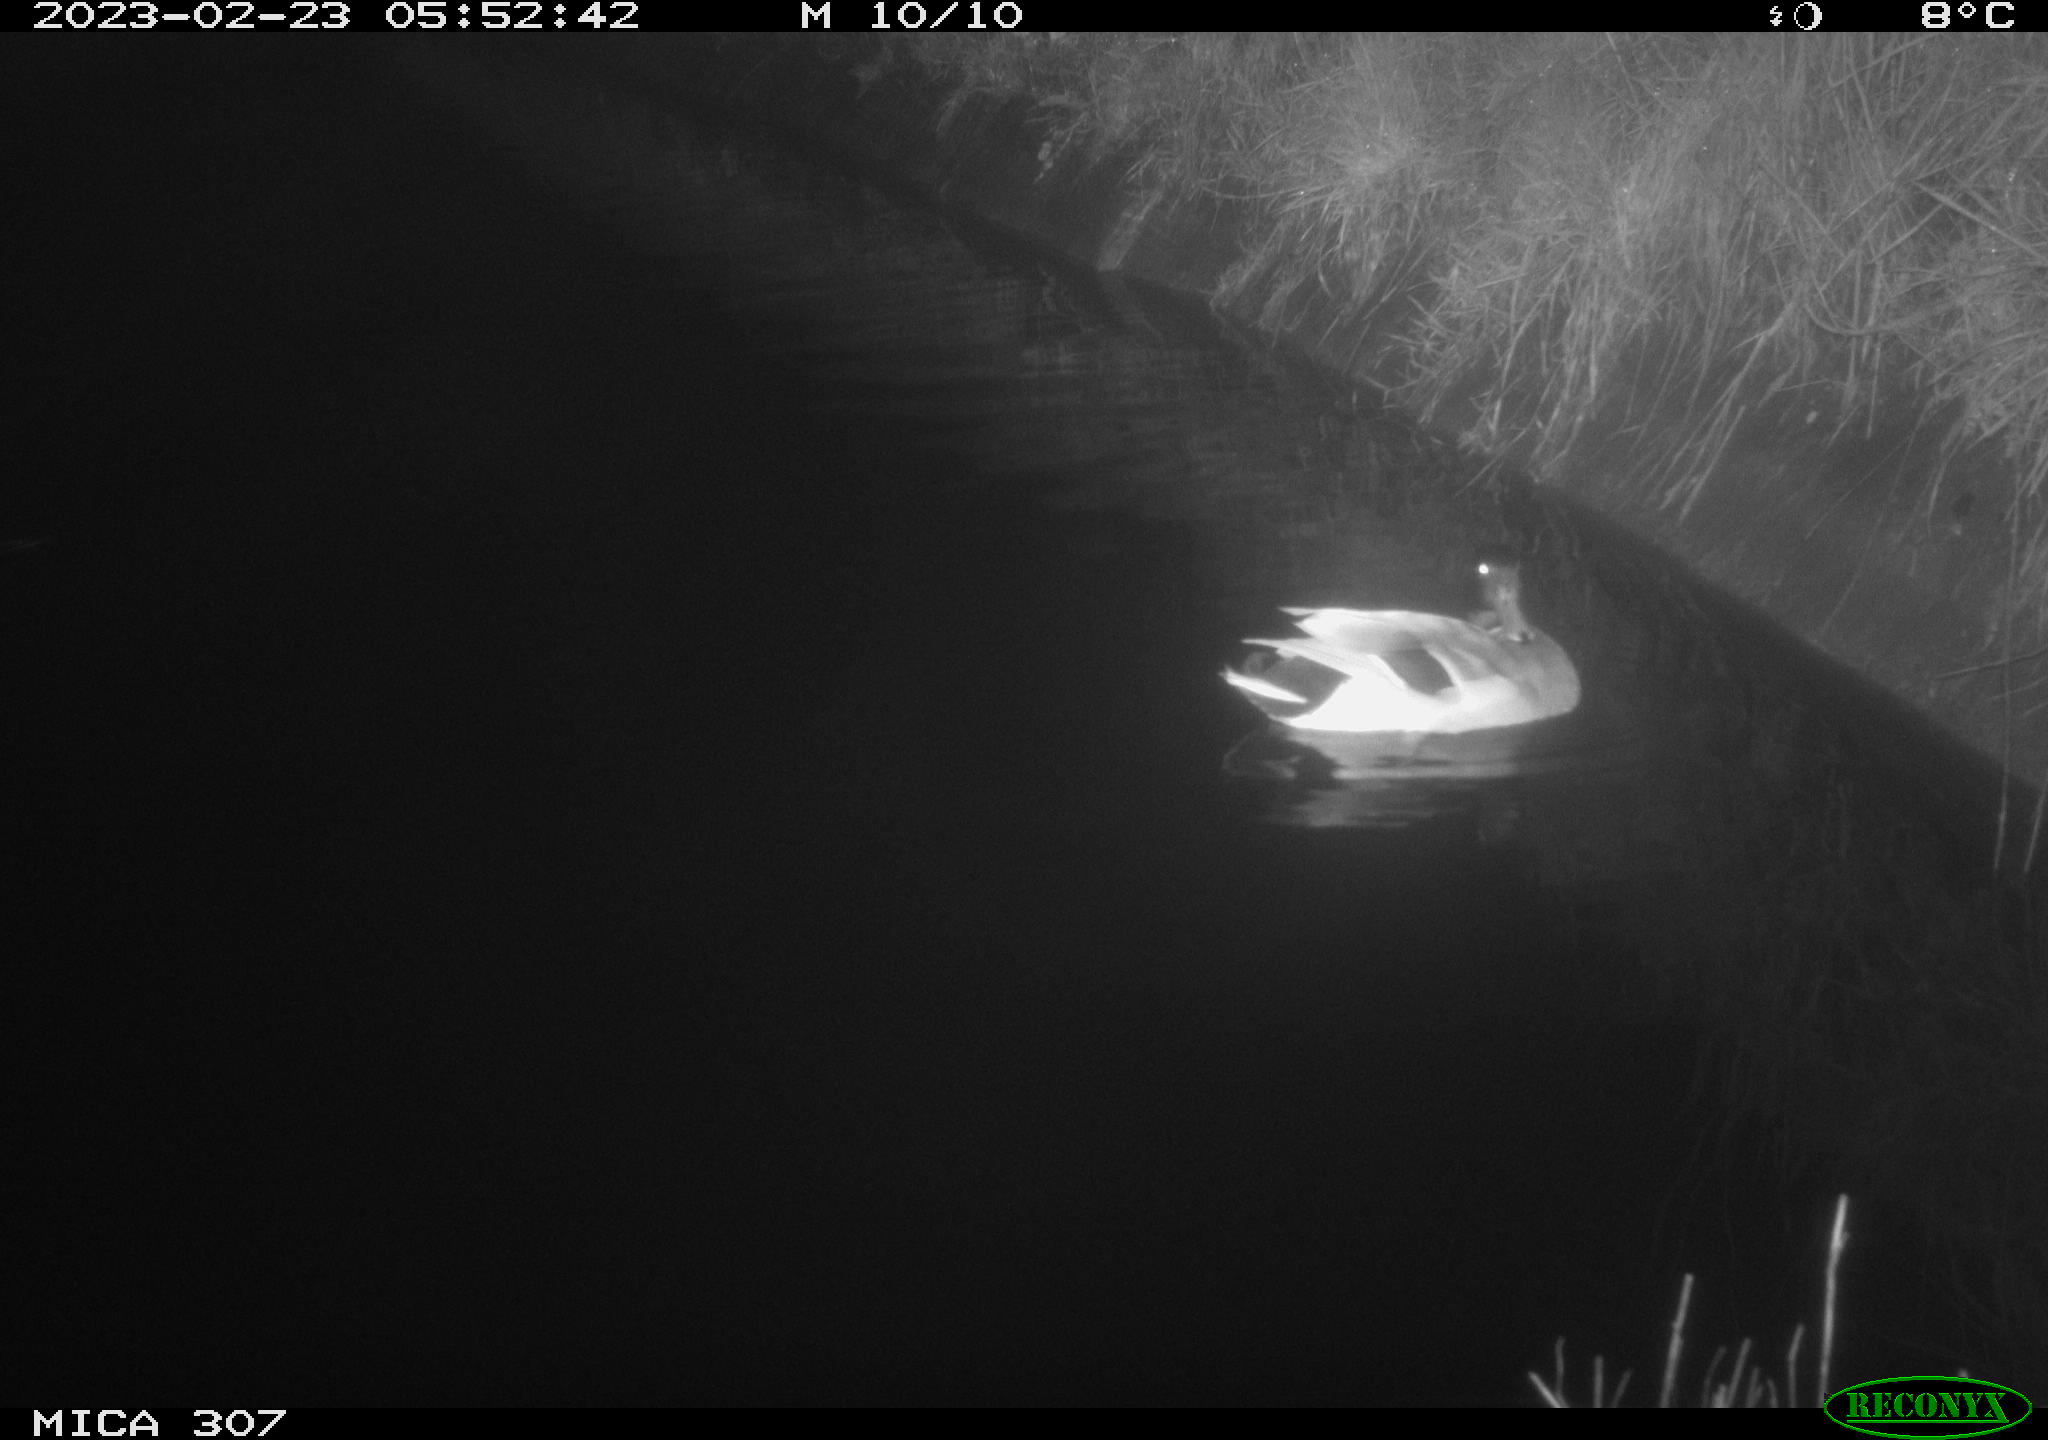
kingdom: Animalia
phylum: Chordata
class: Aves
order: Anseriformes
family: Anatidae
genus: Anas
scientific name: Anas
